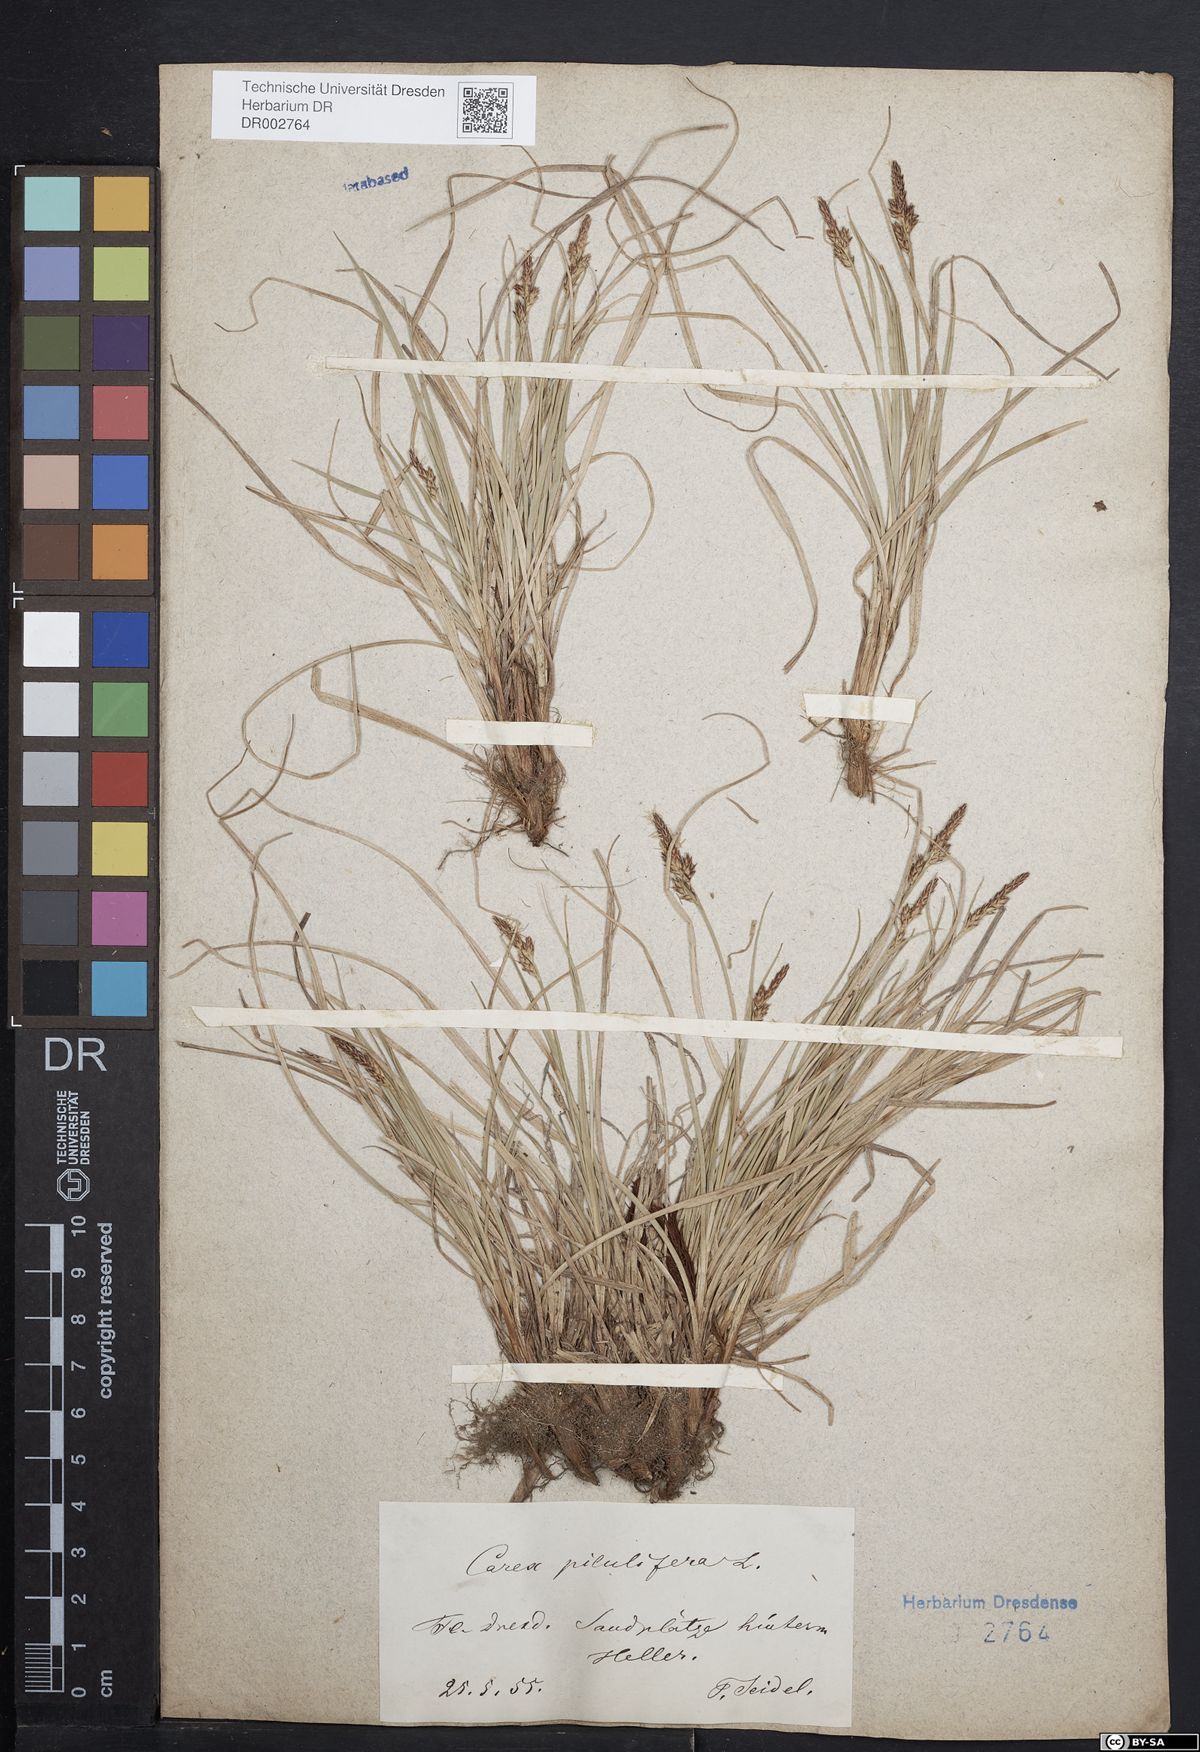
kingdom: Plantae
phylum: Tracheophyta
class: Liliopsida
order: Poales
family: Cyperaceae
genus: Carex
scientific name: Carex caryophyllea
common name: Spring sedge
